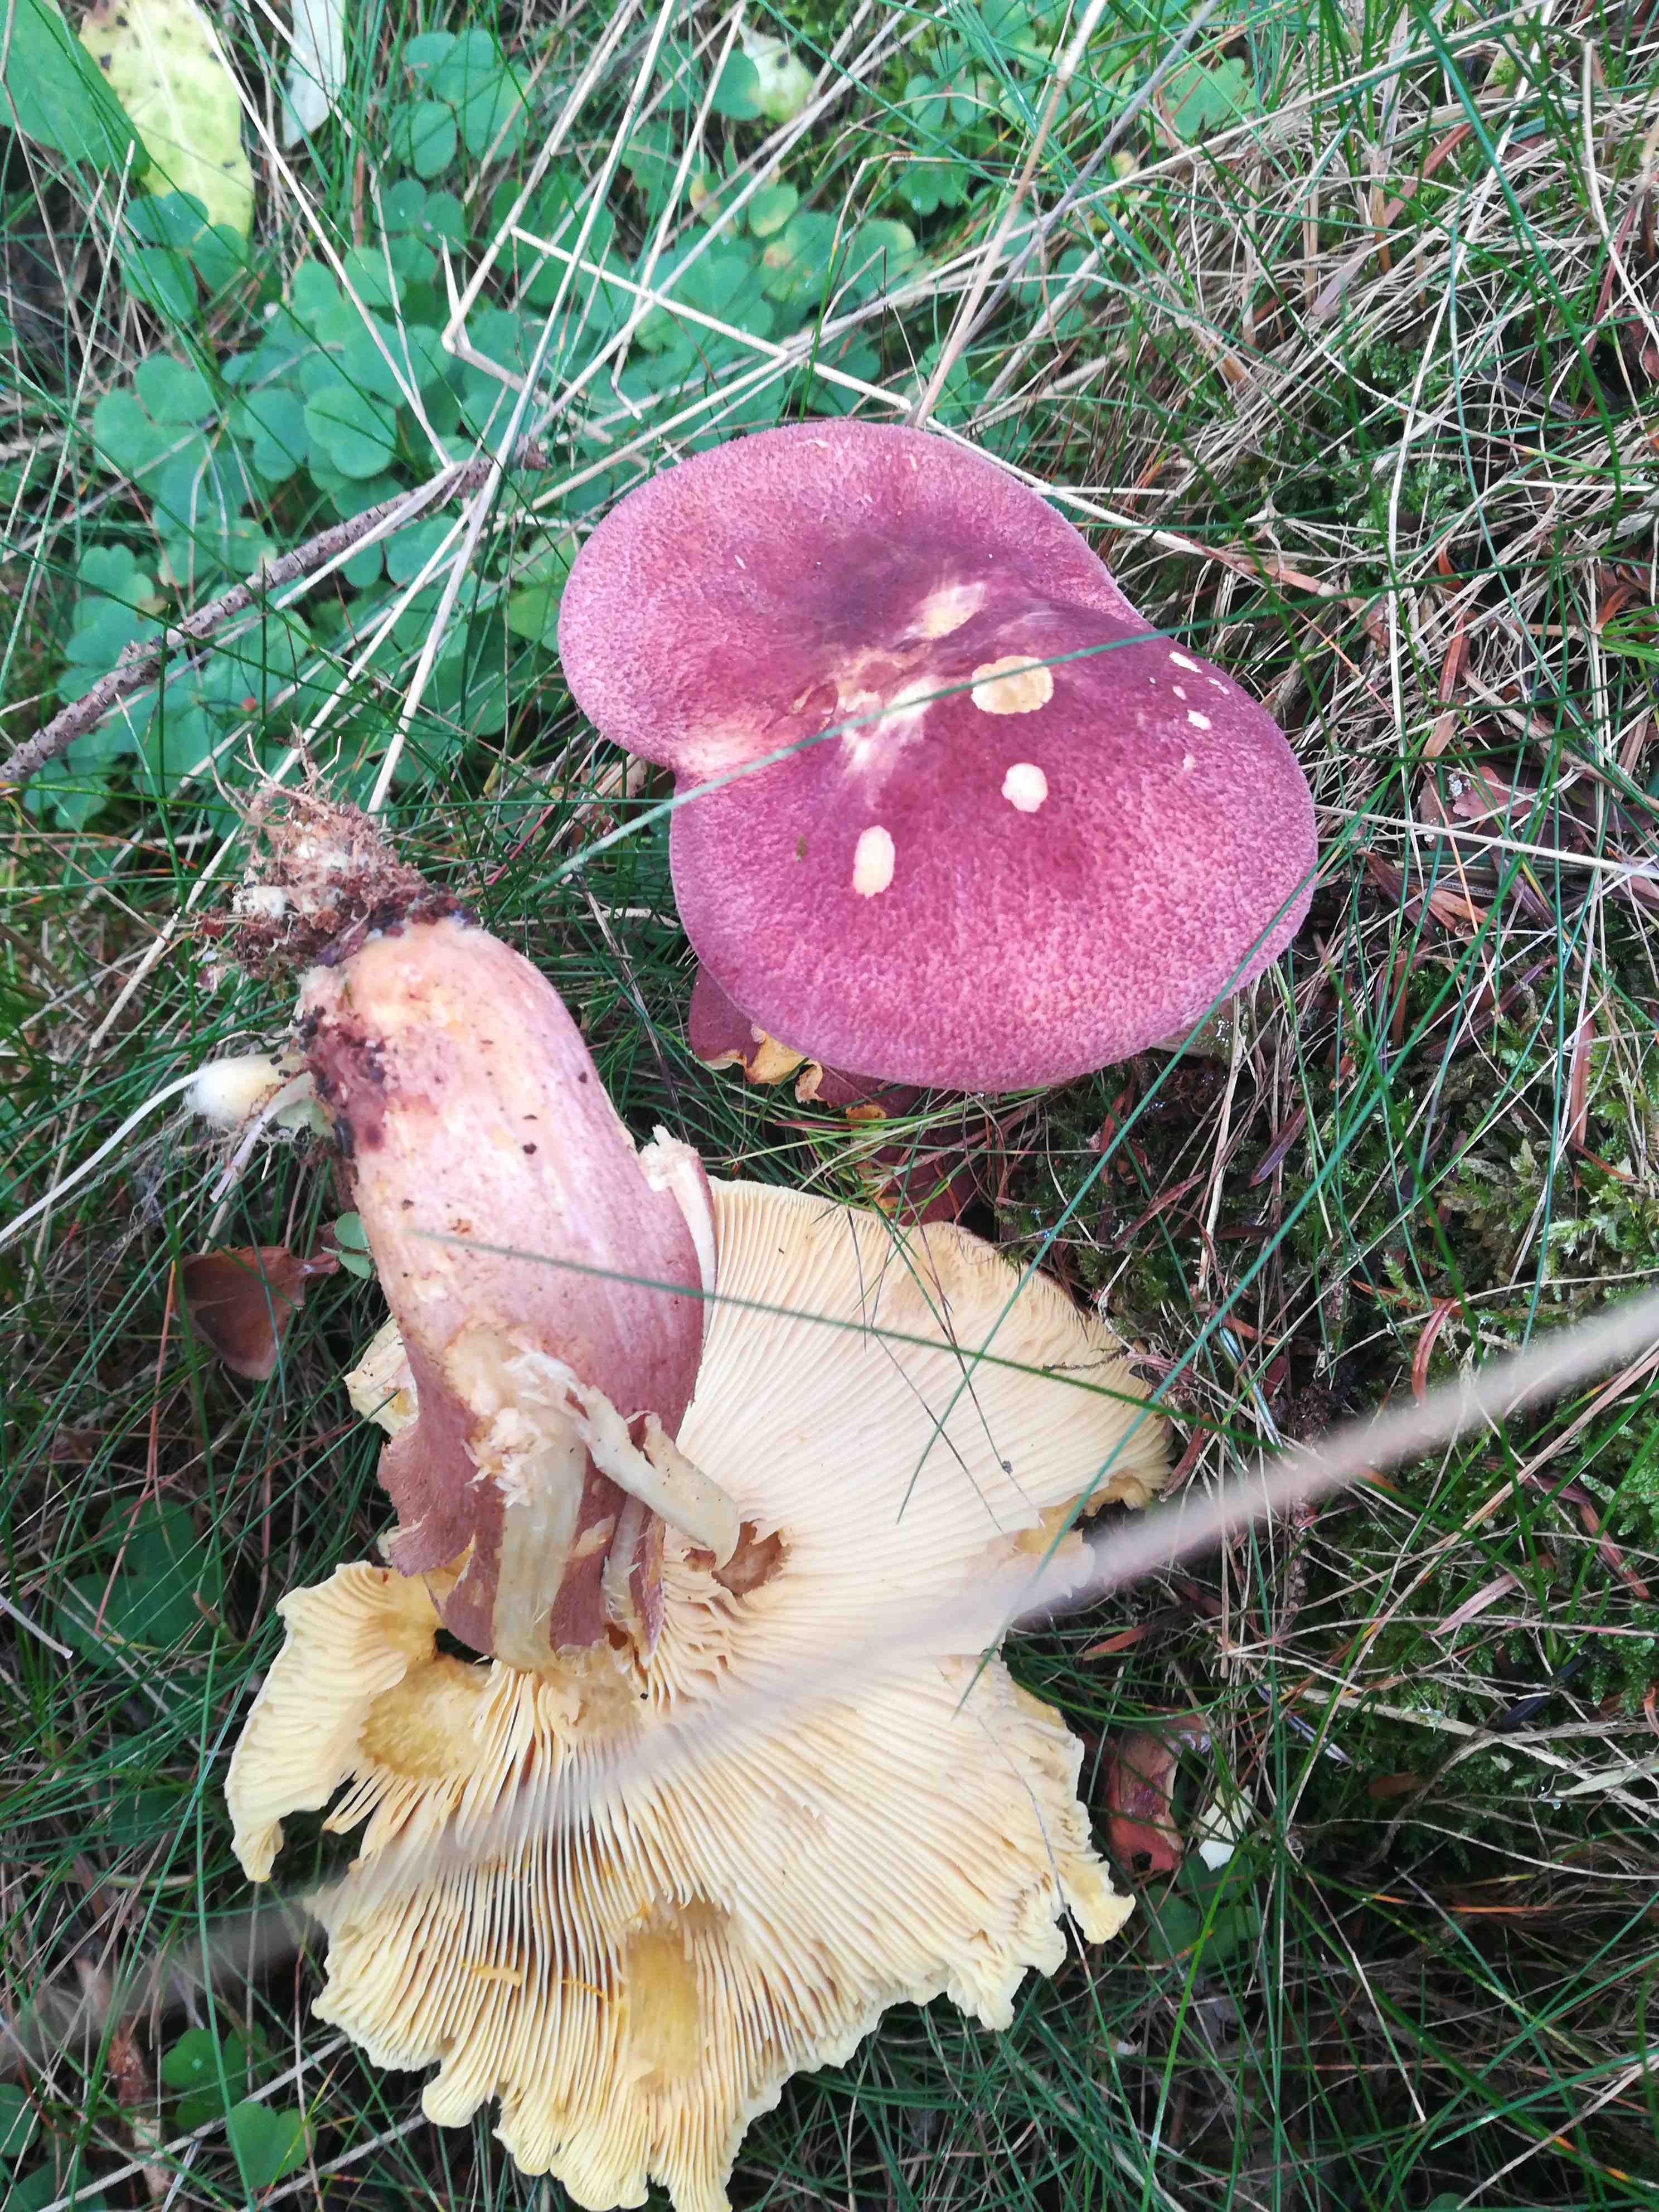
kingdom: Fungi
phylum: Basidiomycota
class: Agaricomycetes
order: Agaricales
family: Tricholomataceae
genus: Tricholomopsis
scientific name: Tricholomopsis rutilans
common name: purpur-væbnerhat
